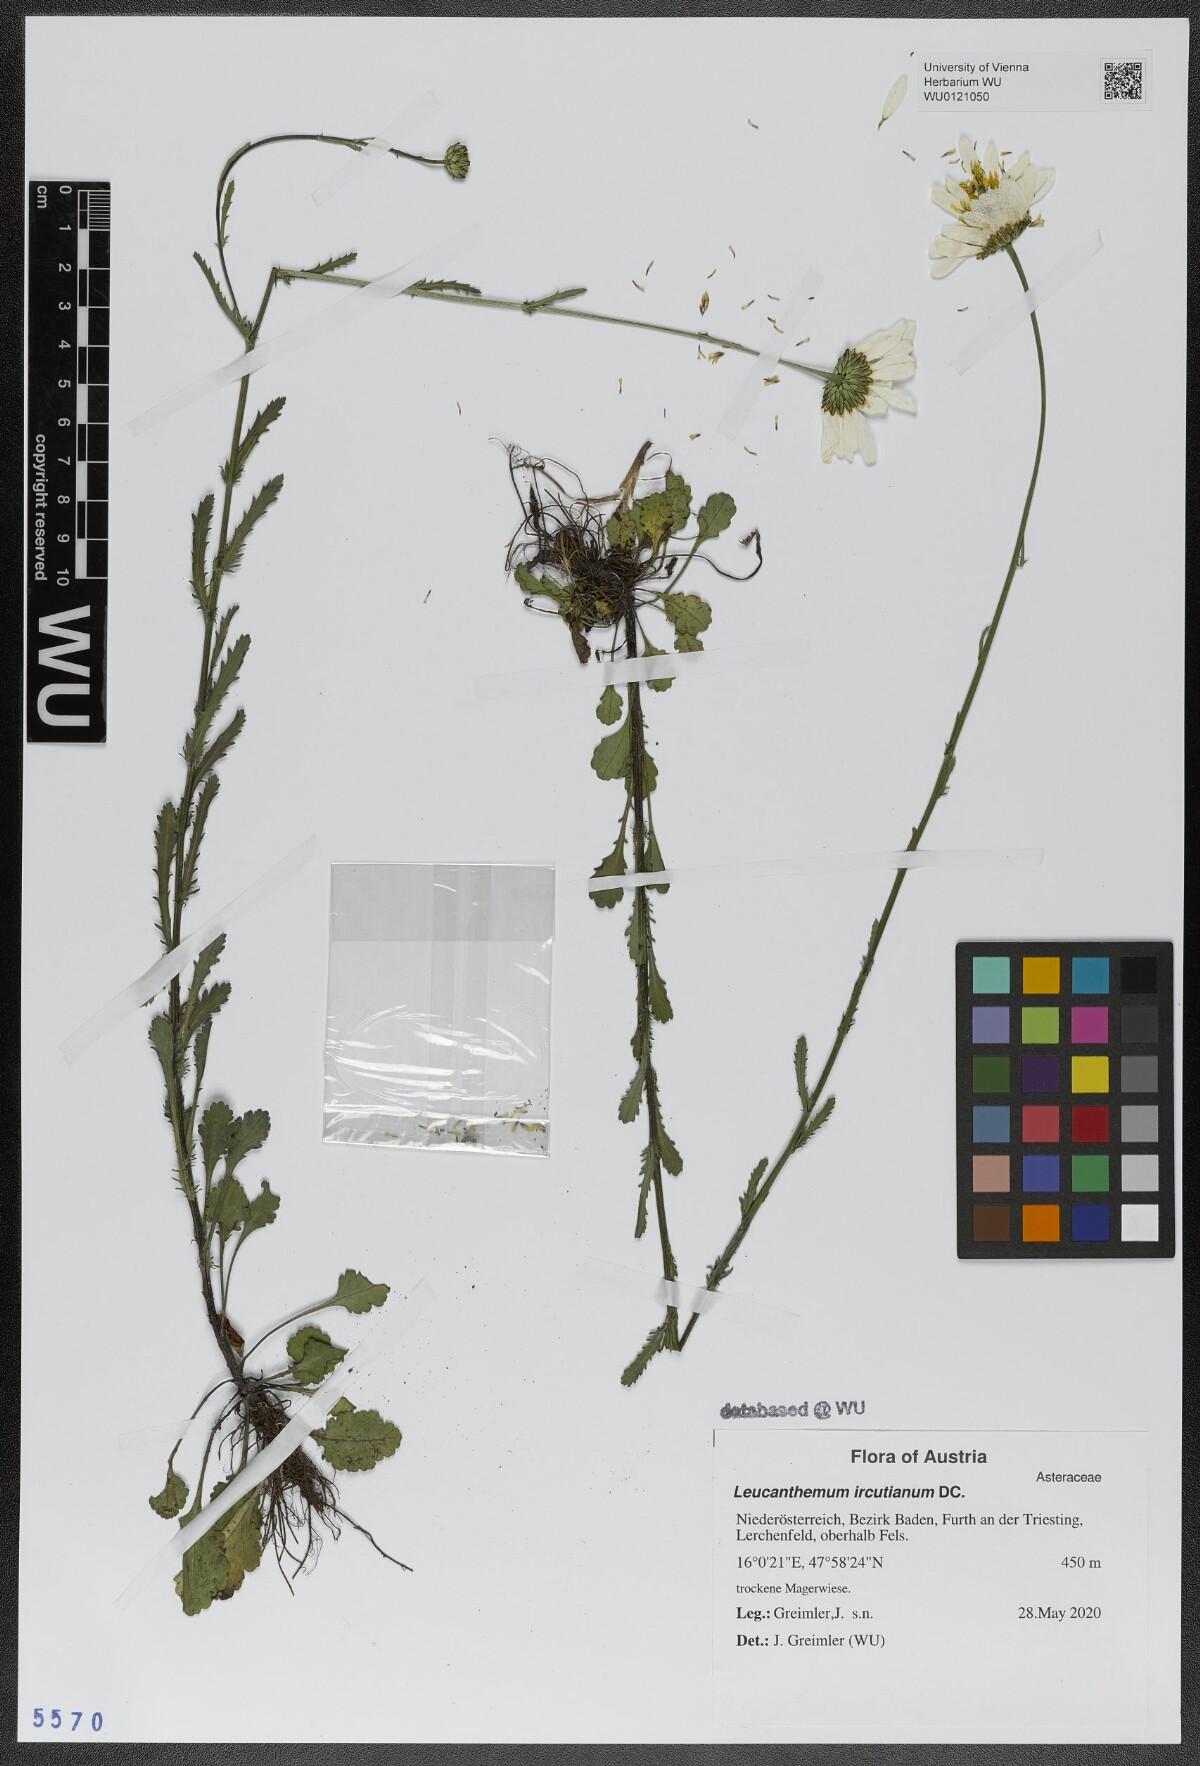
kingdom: Plantae
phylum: Tracheophyta
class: Magnoliopsida
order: Asterales
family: Asteraceae
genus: Leucanthemum
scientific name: Leucanthemum ircutianum
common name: Daisy
